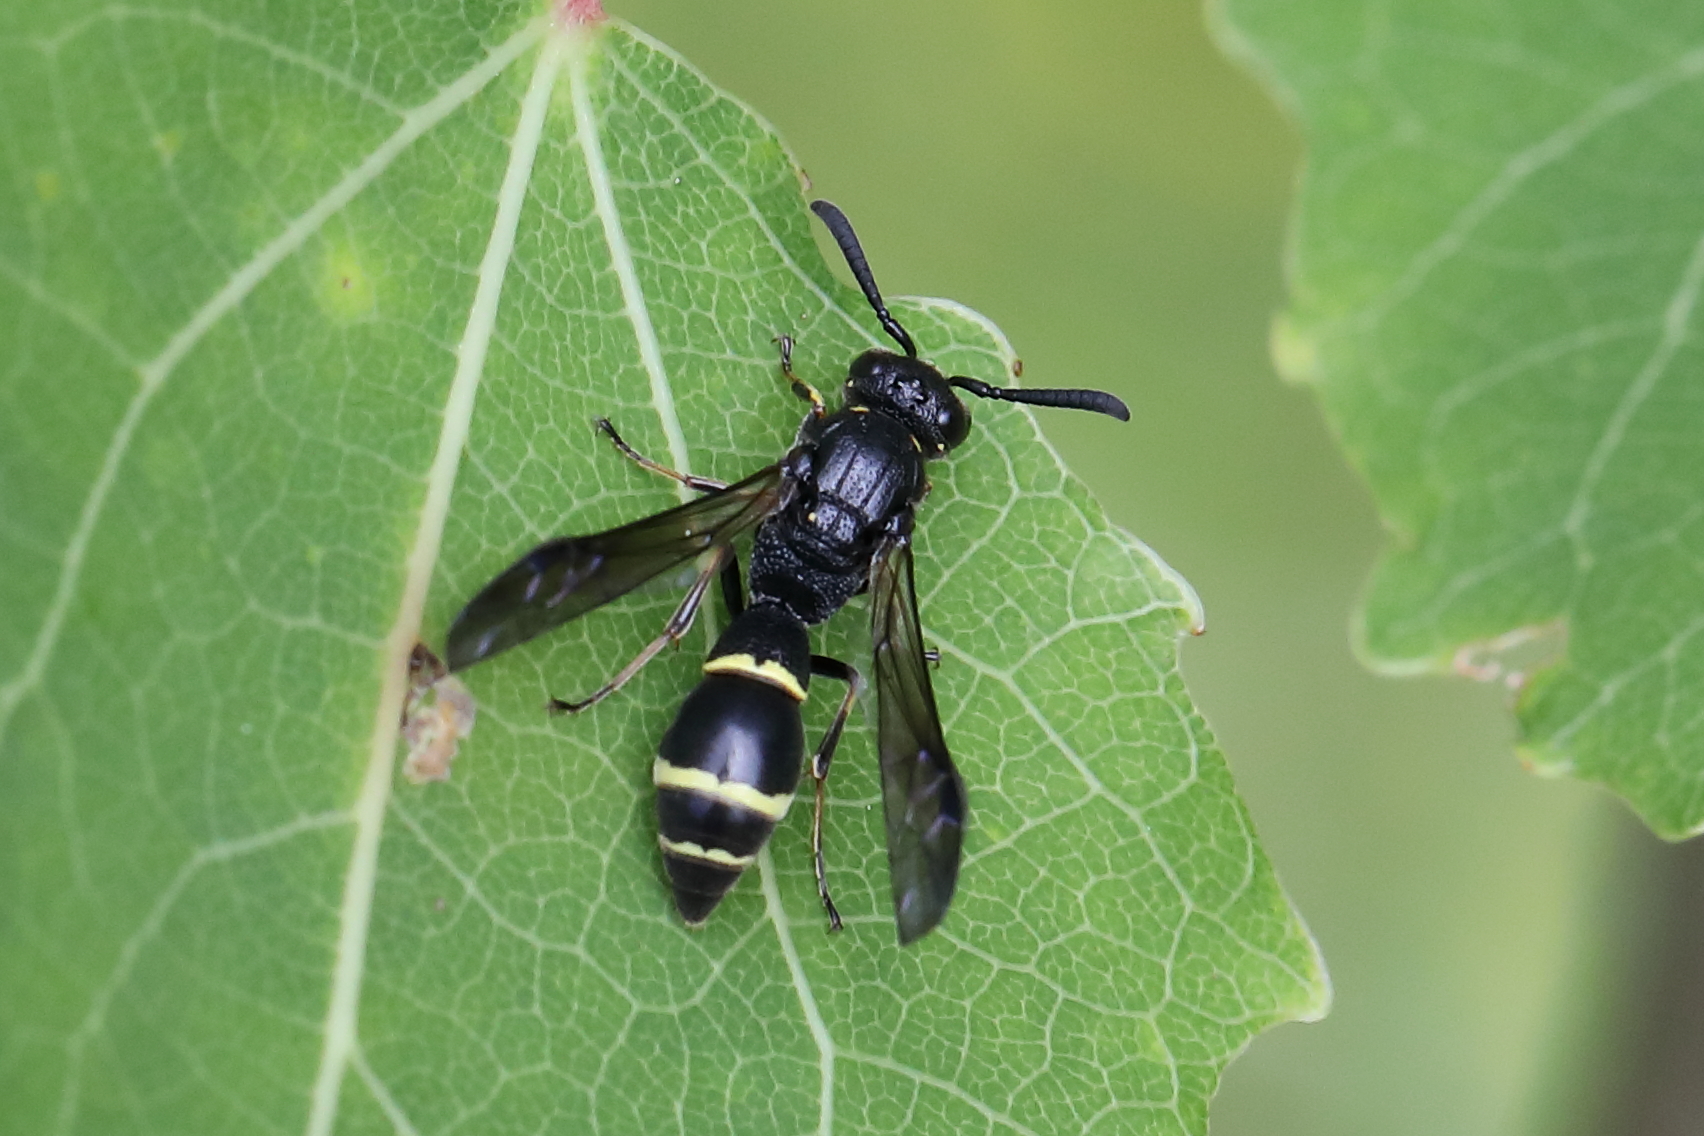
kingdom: Animalia
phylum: Arthropoda
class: Insecta
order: Hymenoptera
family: Eumenidae
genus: Symmorphus
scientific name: Symmorphus bifasciatus
